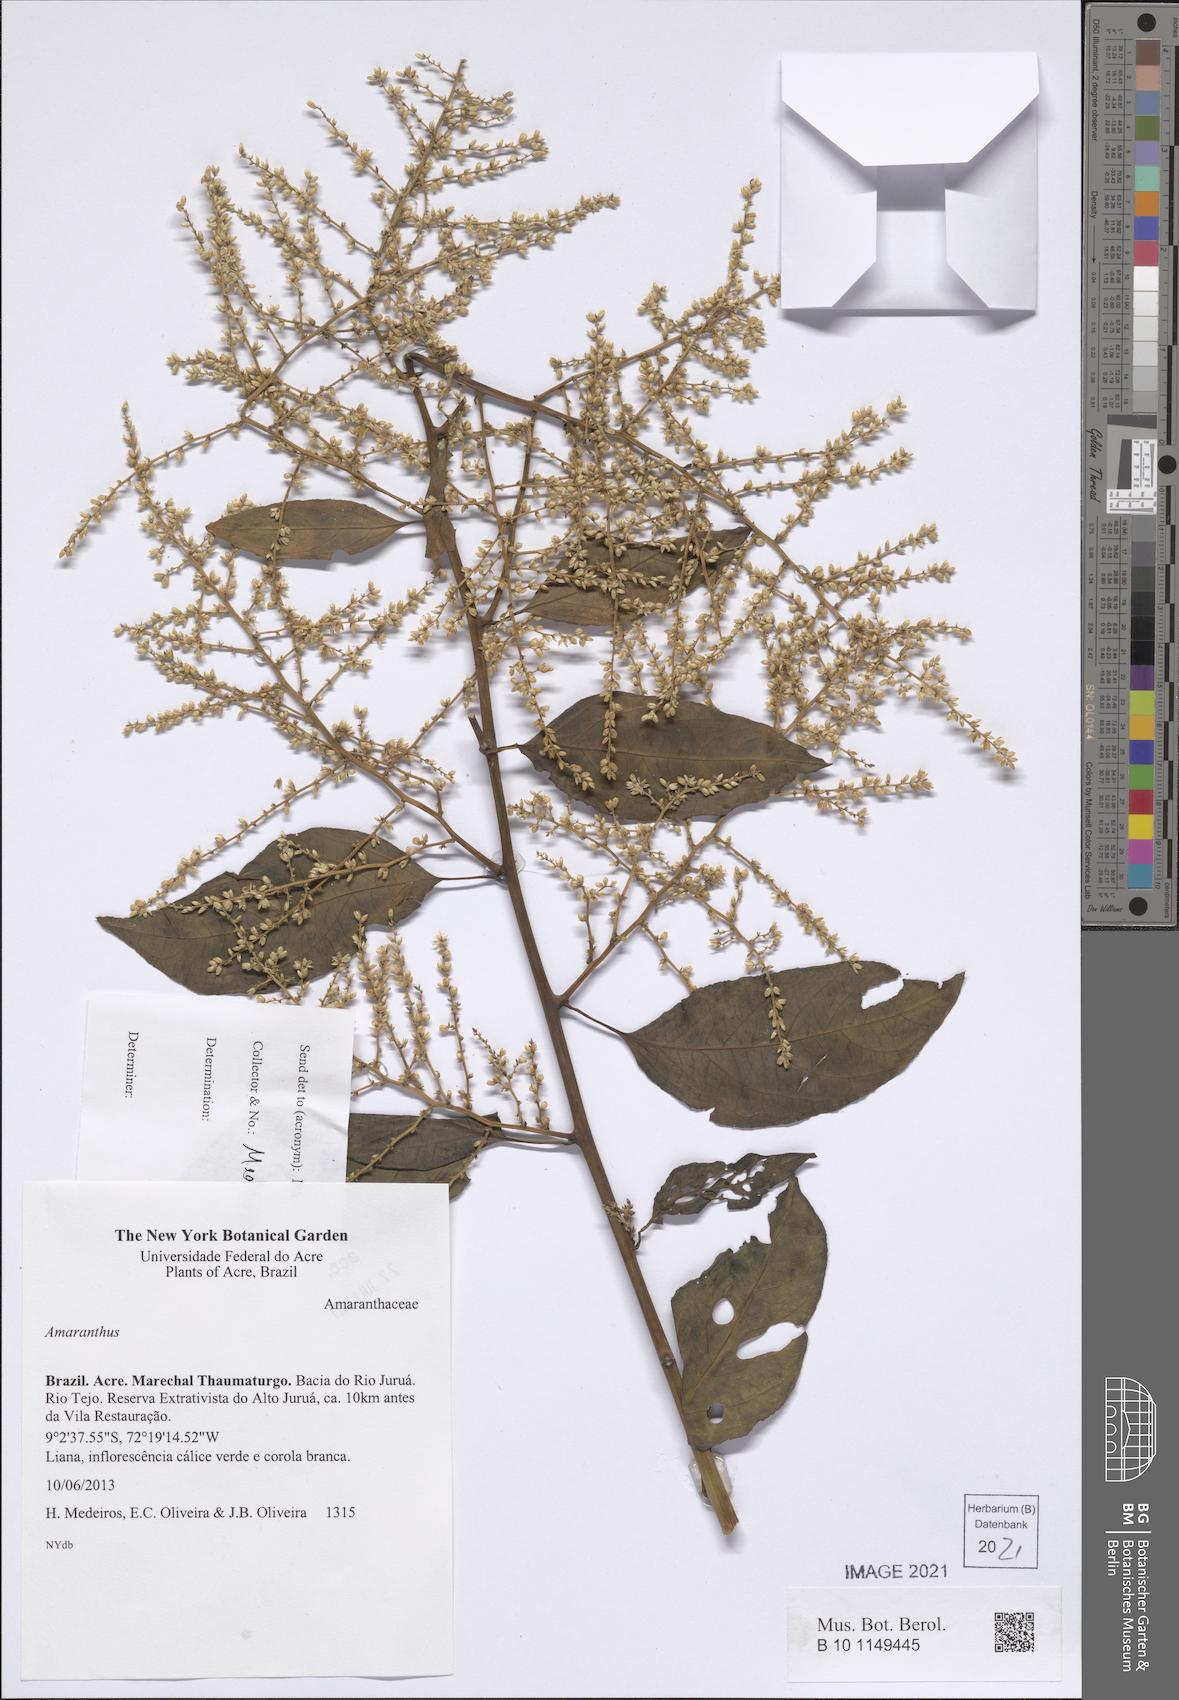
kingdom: Plantae
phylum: Tracheophyta
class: Magnoliopsida
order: Caryophyllales
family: Amaranthaceae
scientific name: Amaranthaceae
